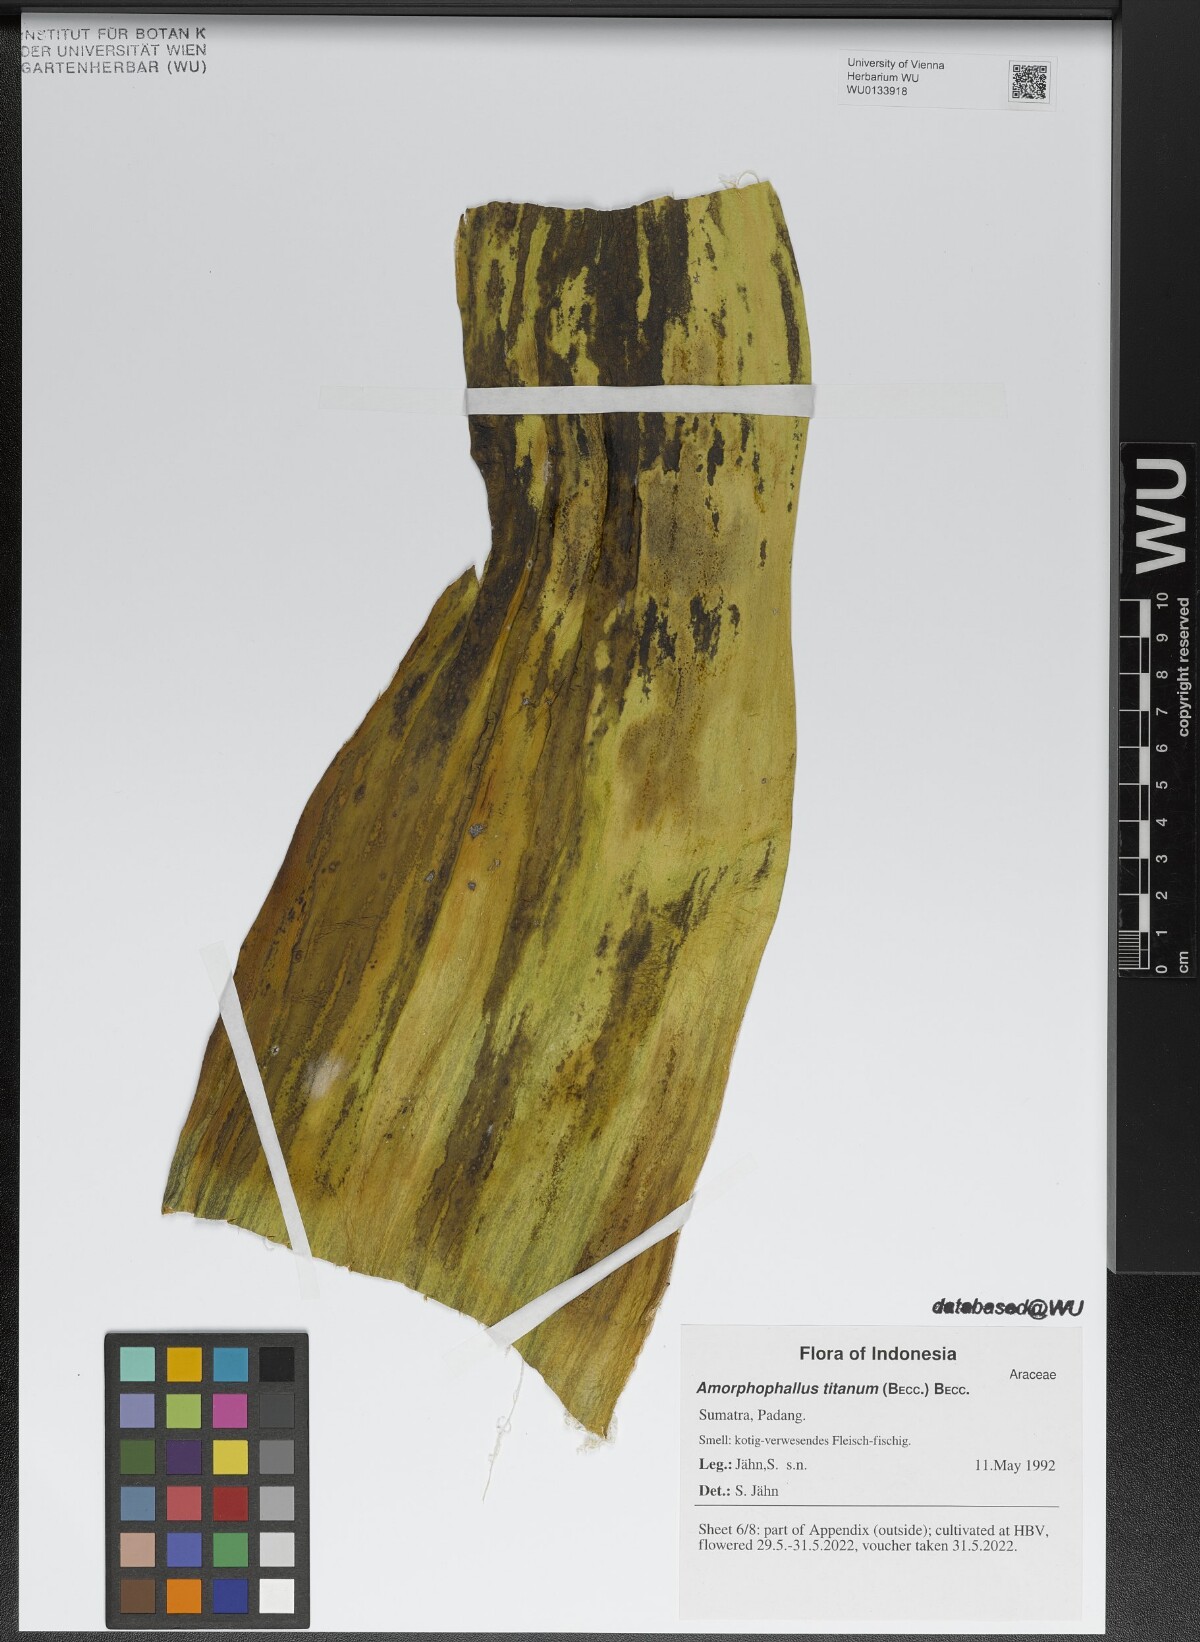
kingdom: Plantae
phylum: Tracheophyta
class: Liliopsida
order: Alismatales
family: Araceae
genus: Amorphophallus
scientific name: Amorphophallus titanum
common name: Titan arum
